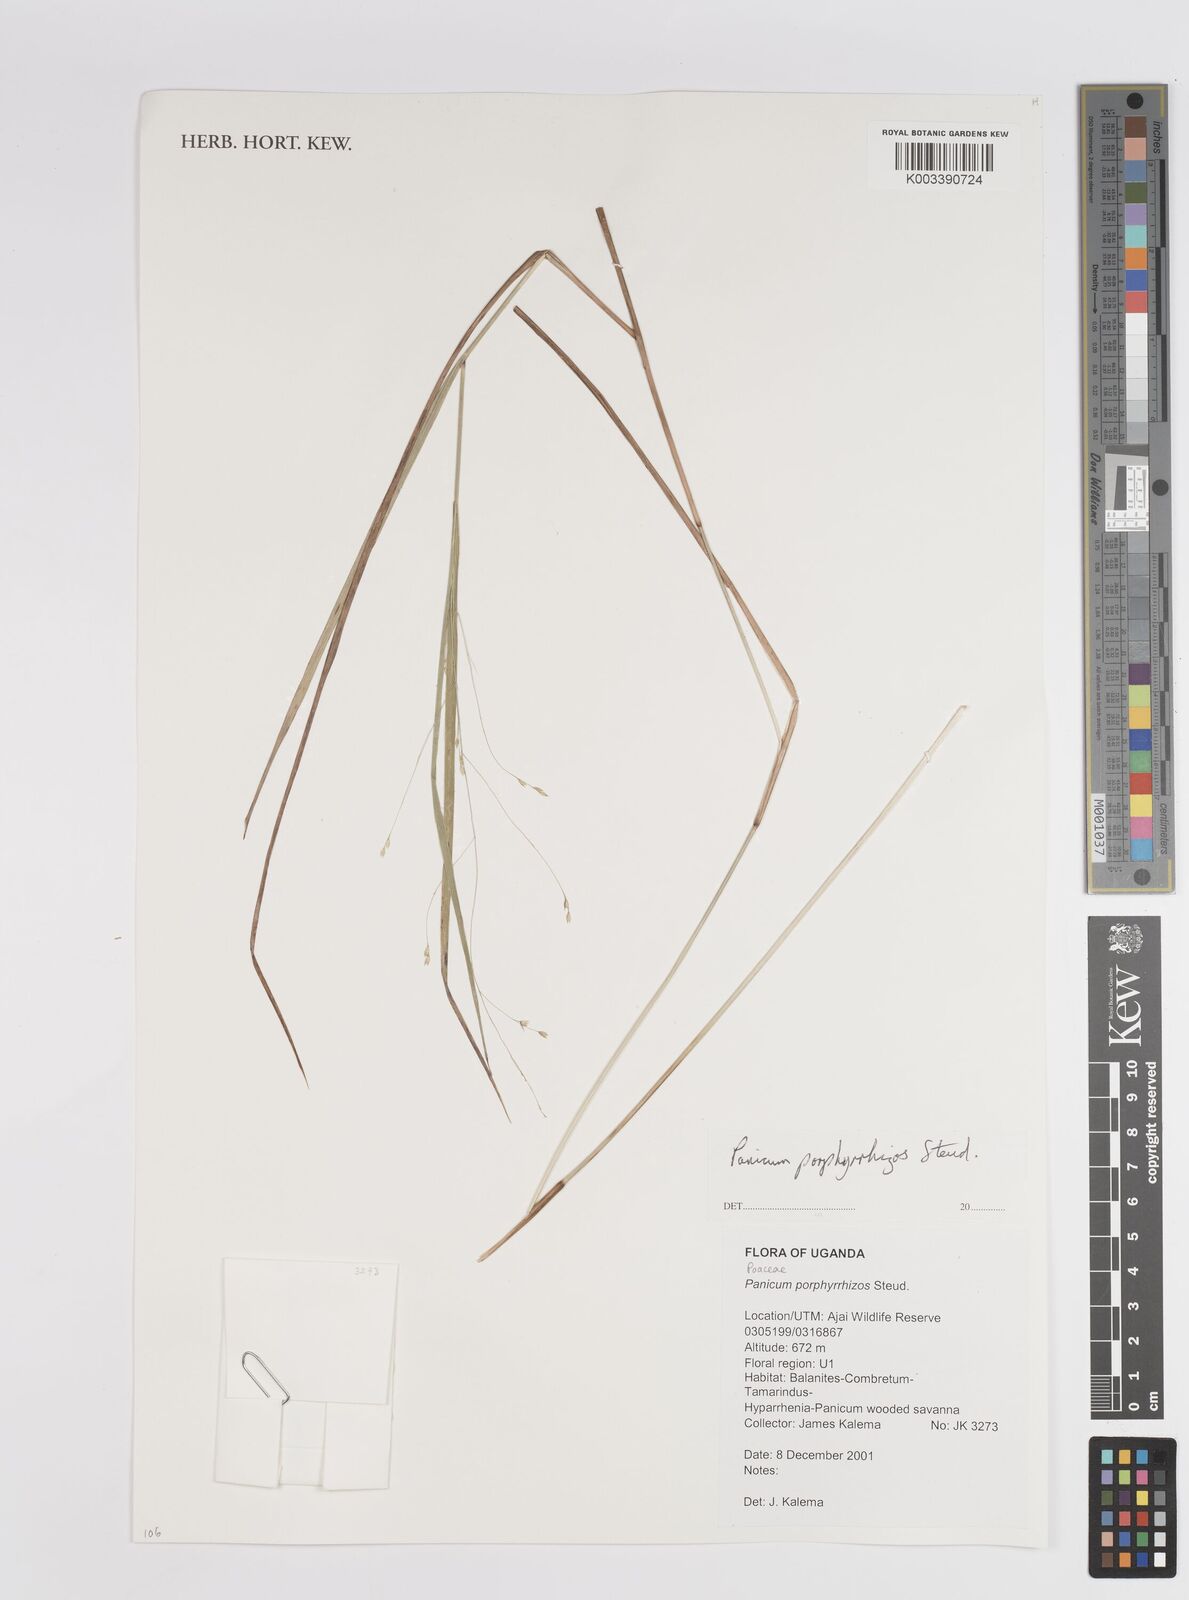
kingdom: Plantae
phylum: Tracheophyta
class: Liliopsida
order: Poales
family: Poaceae
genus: Panicum
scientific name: Panicum porphyrrhizos
